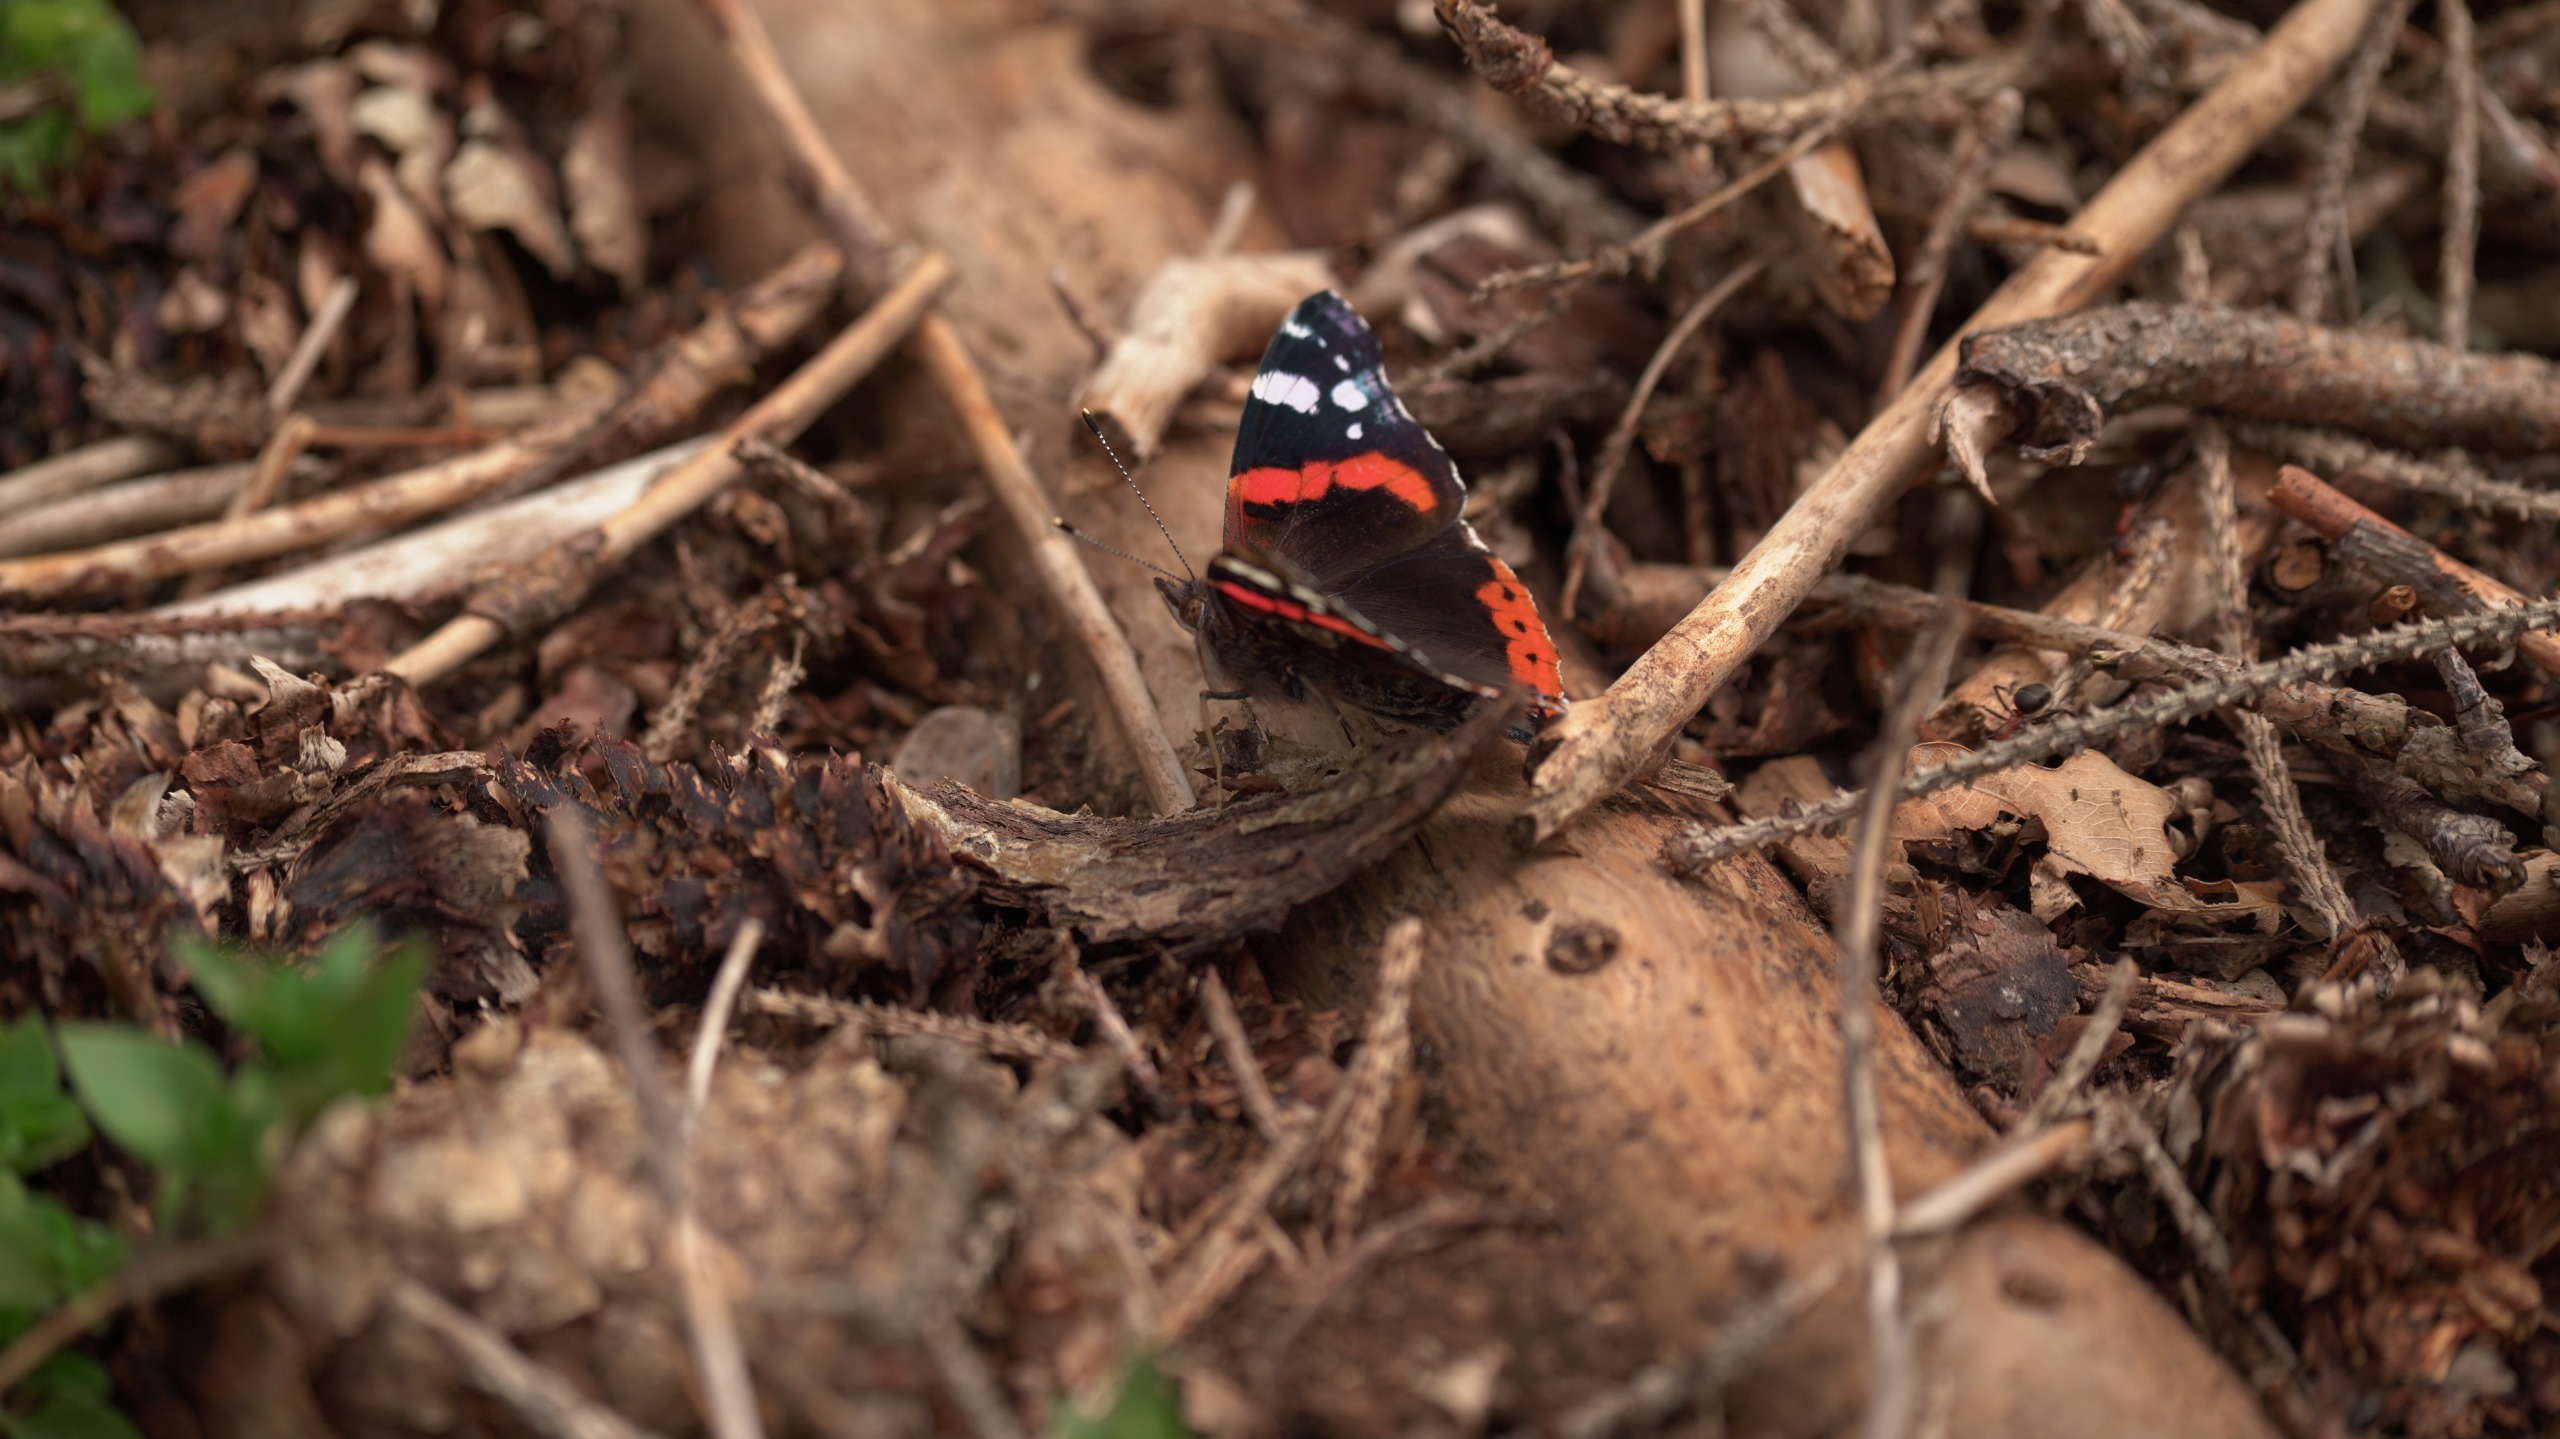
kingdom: Animalia
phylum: Arthropoda
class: Insecta
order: Lepidoptera
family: Nymphalidae
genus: Vanessa
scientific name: Vanessa atalanta
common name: Admiral
